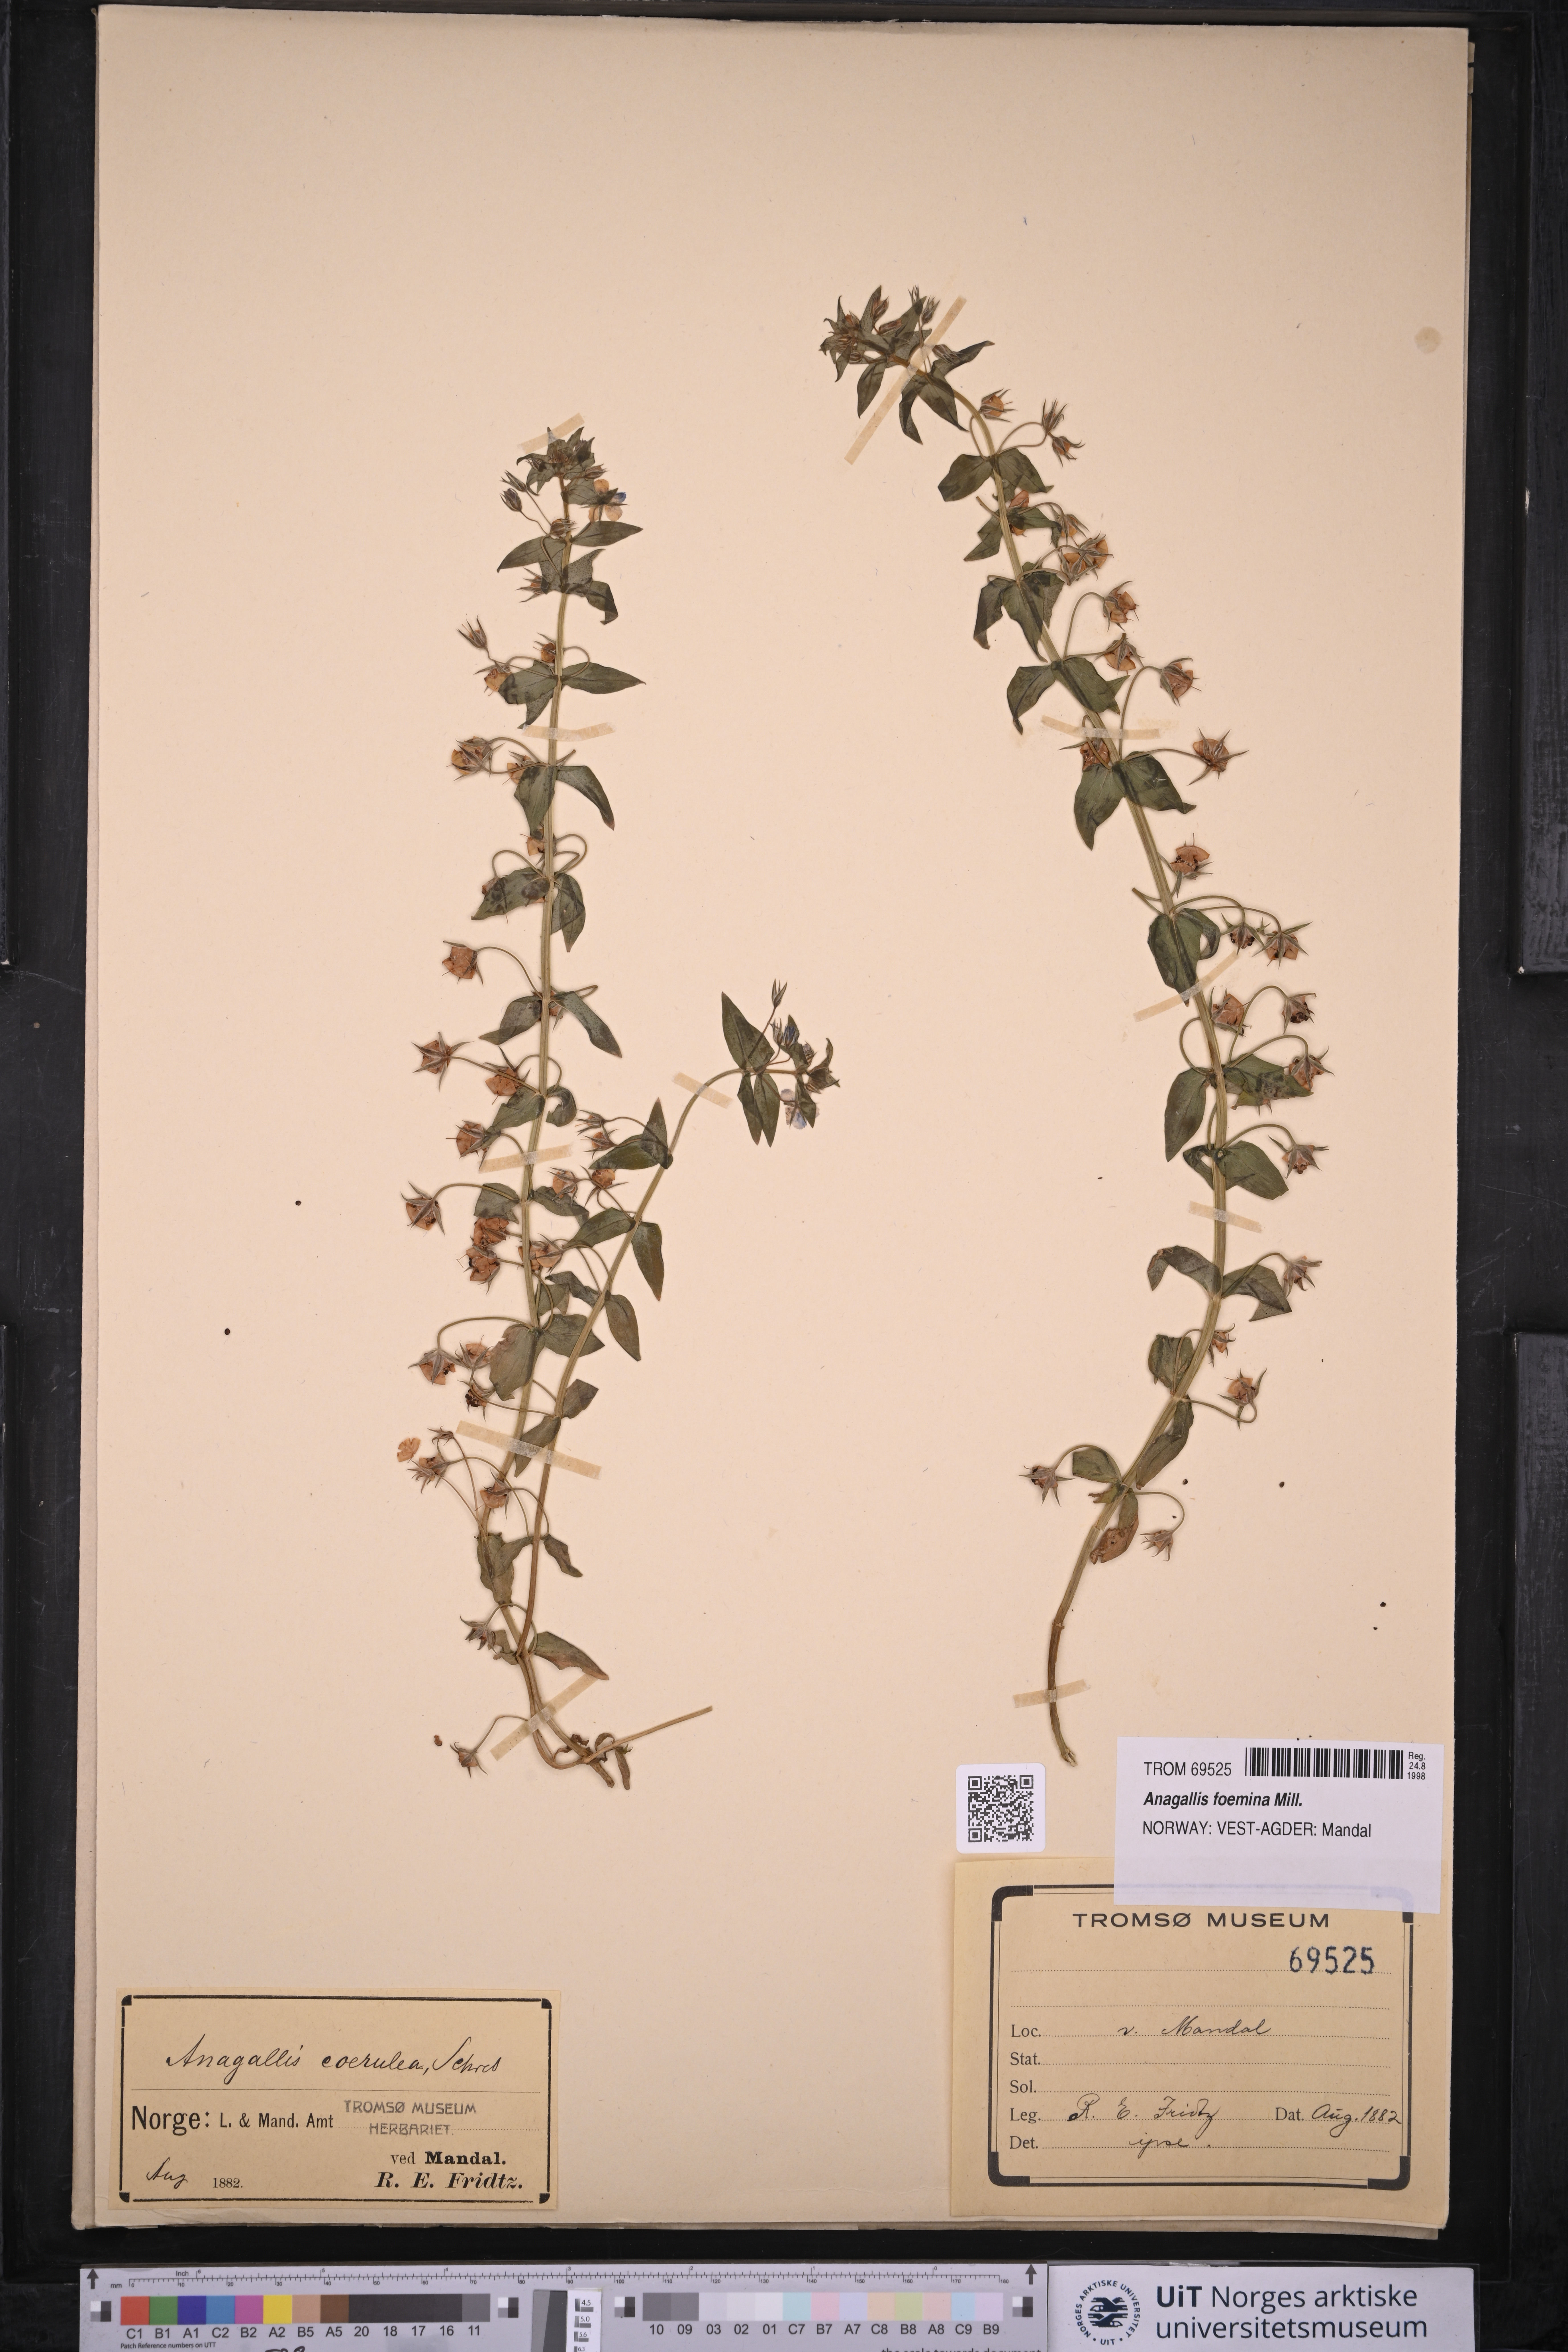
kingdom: Plantae
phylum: Tracheophyta
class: Magnoliopsida
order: Ericales
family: Primulaceae
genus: Lysimachia
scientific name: Lysimachia foemina
